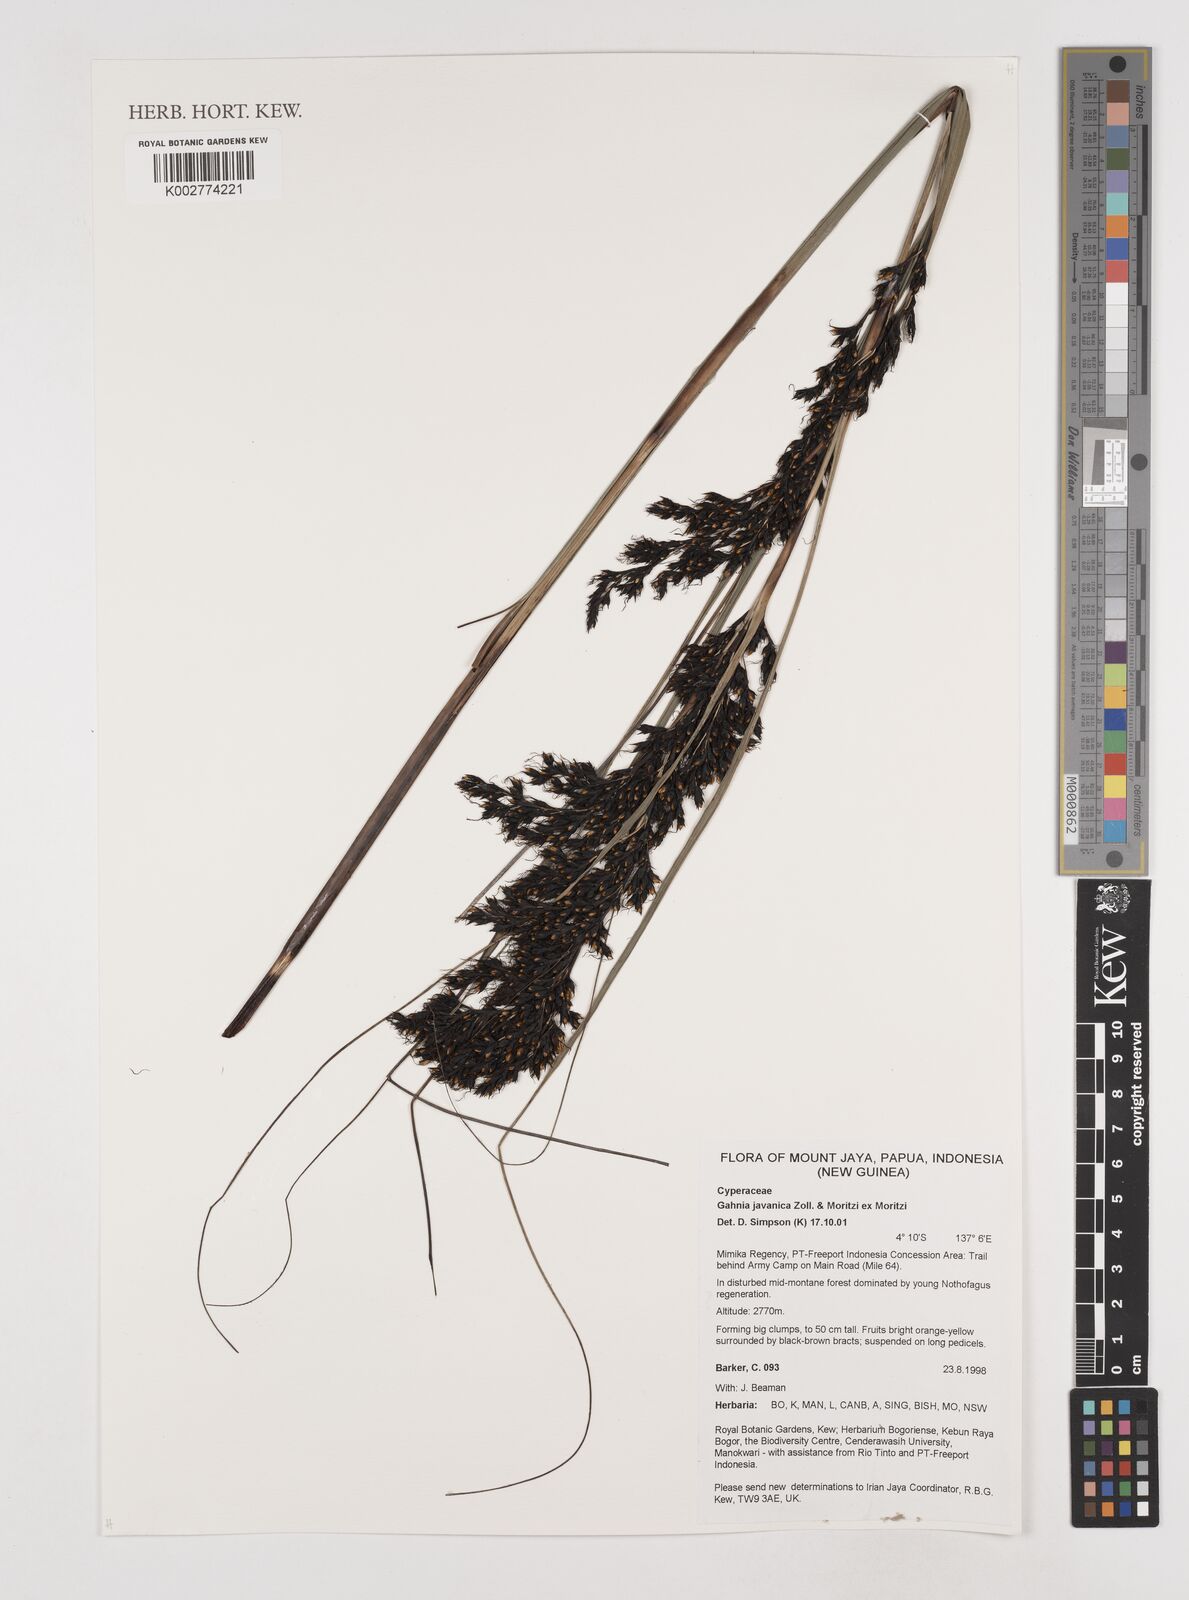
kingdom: Plantae
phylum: Tracheophyta
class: Liliopsida
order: Poales
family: Cyperaceae
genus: Gahnia
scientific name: Gahnia javanica
